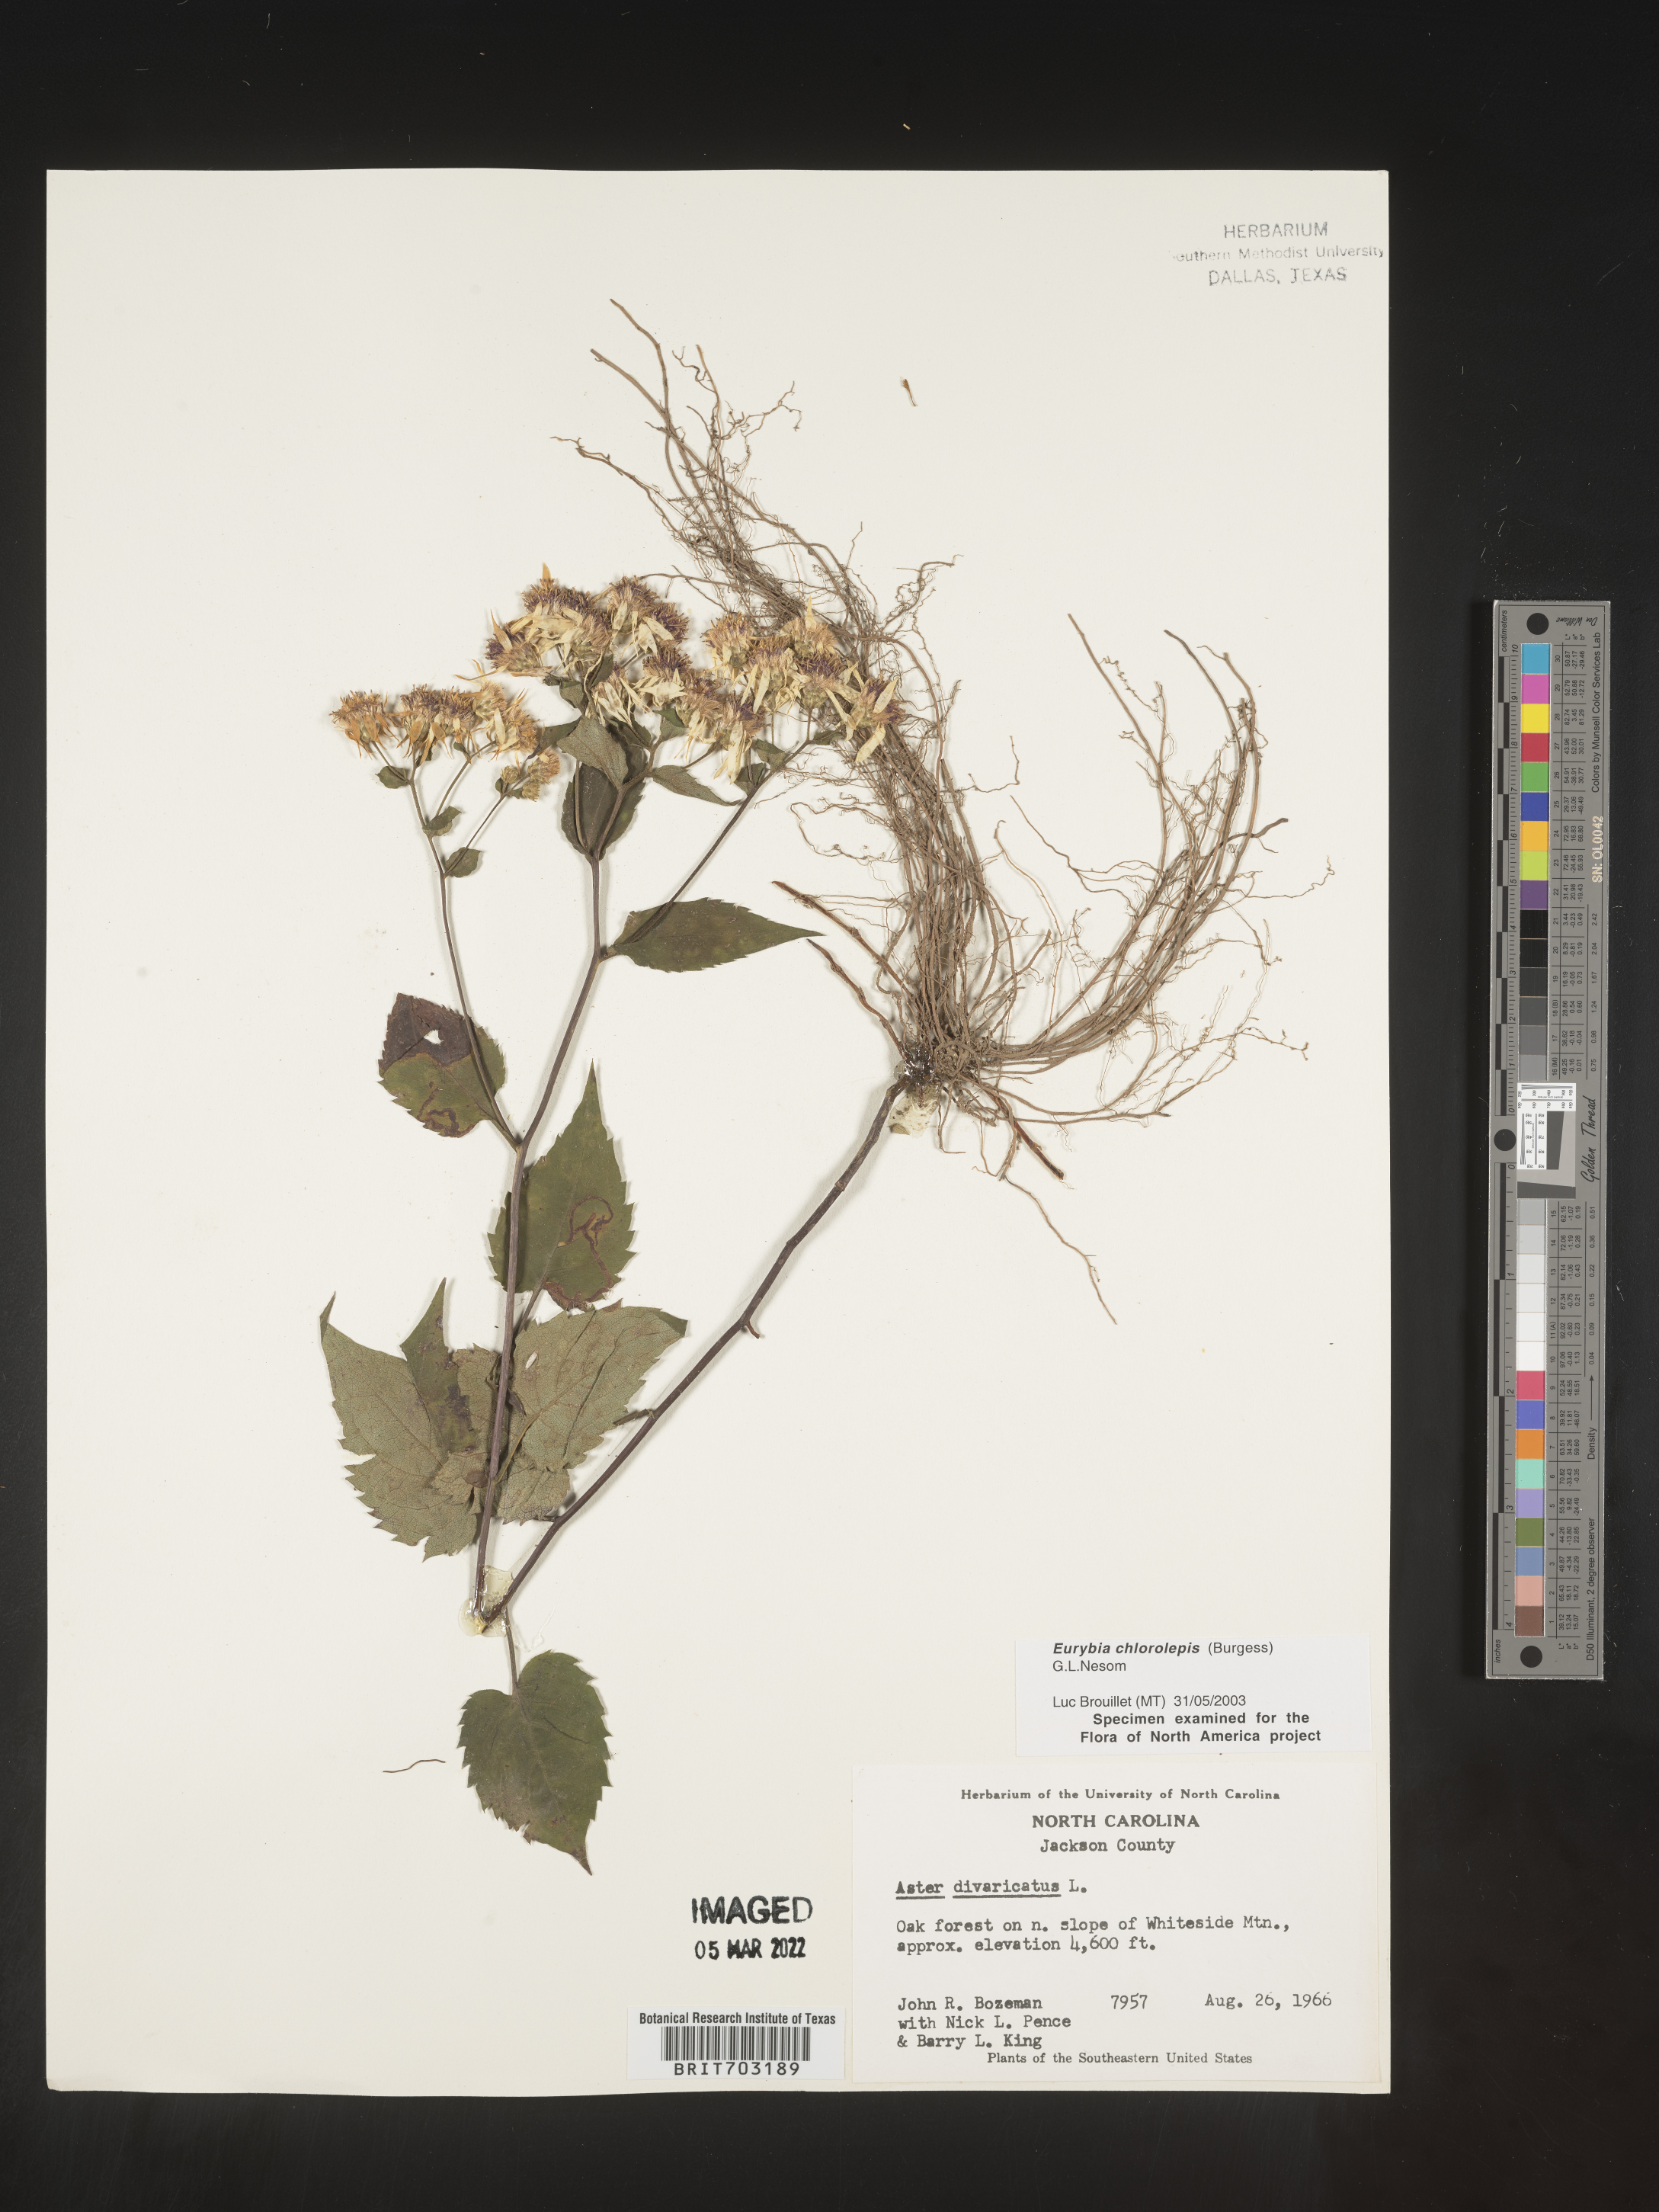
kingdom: Plantae
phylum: Tracheophyta
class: Magnoliopsida
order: Asterales
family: Asteraceae
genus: Eurybia
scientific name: Eurybia chlorolepis
